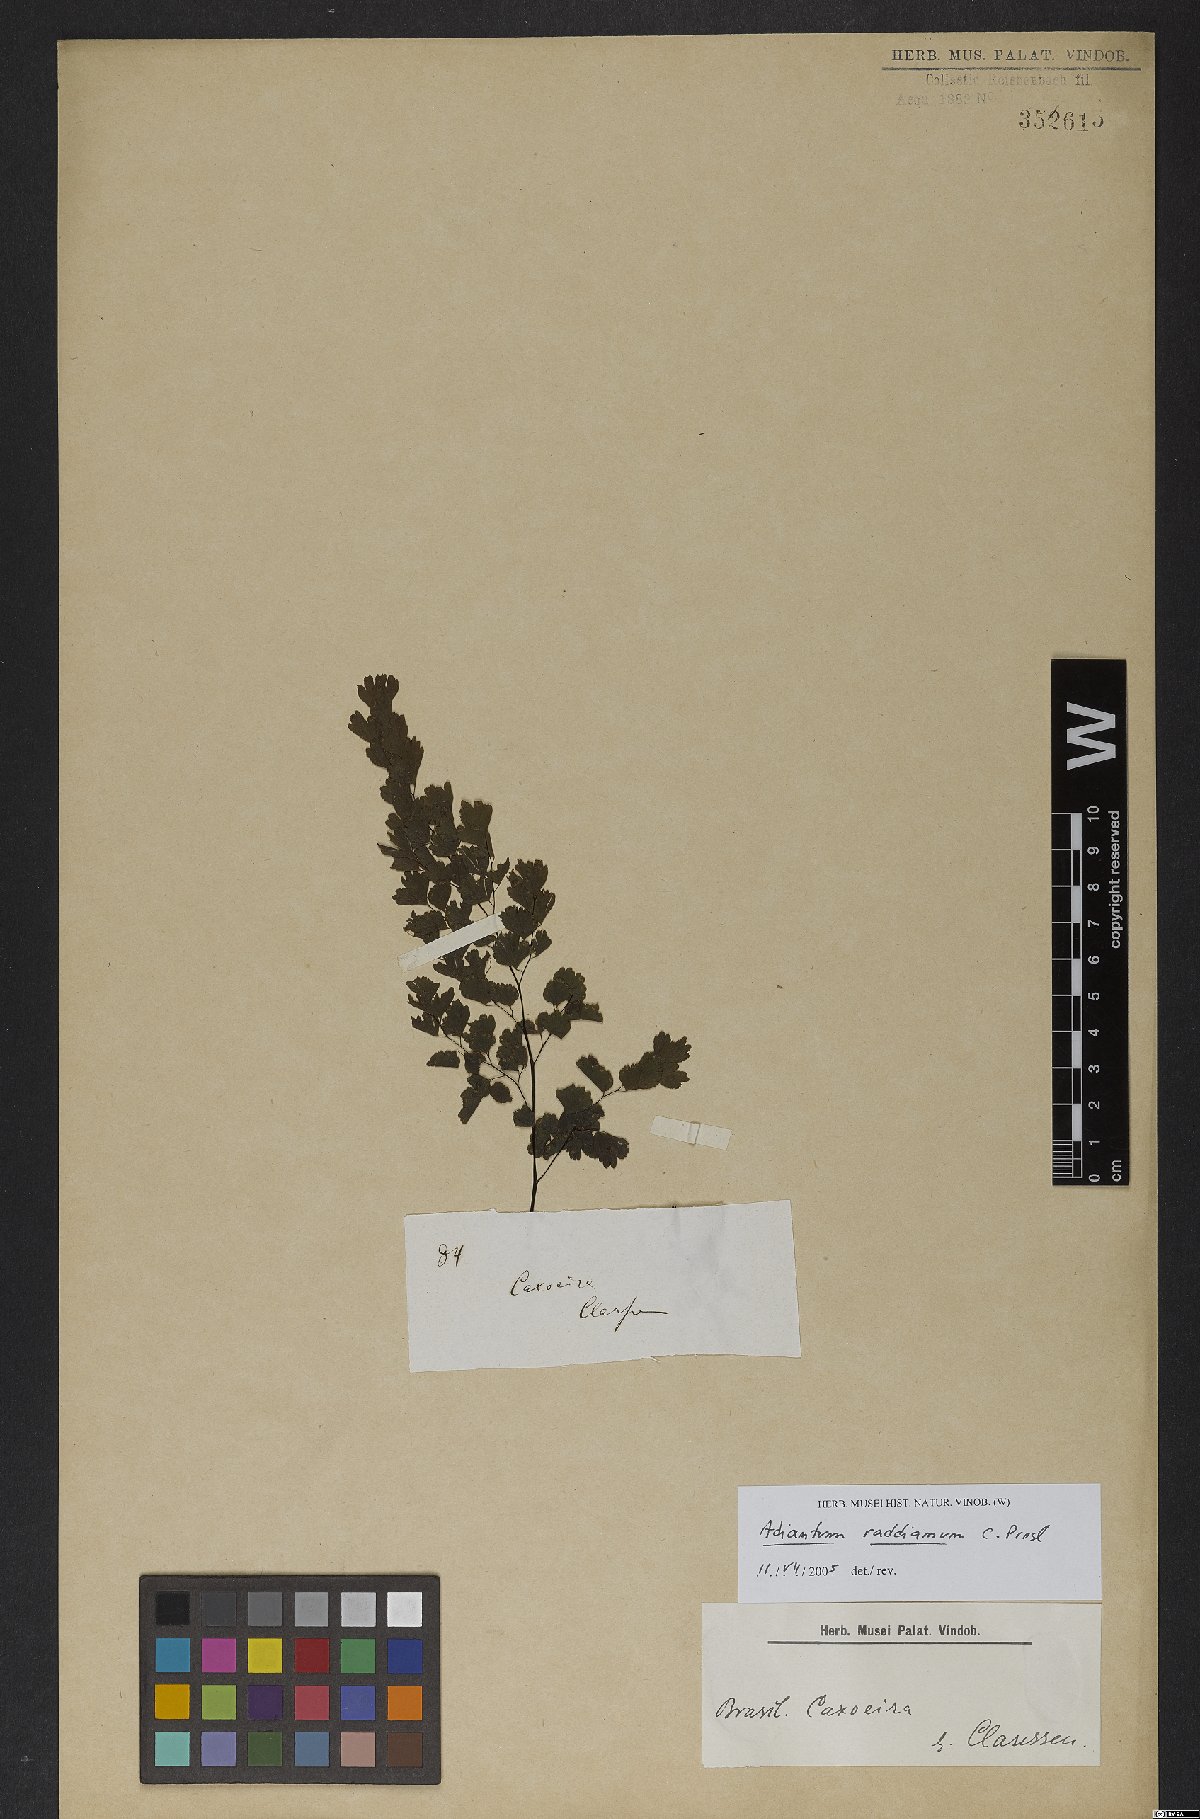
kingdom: Plantae
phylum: Tracheophyta
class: Polypodiopsida
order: Polypodiales
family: Pteridaceae
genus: Adiantum
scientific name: Adiantum raddianum
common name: Delta maidenhair fern
